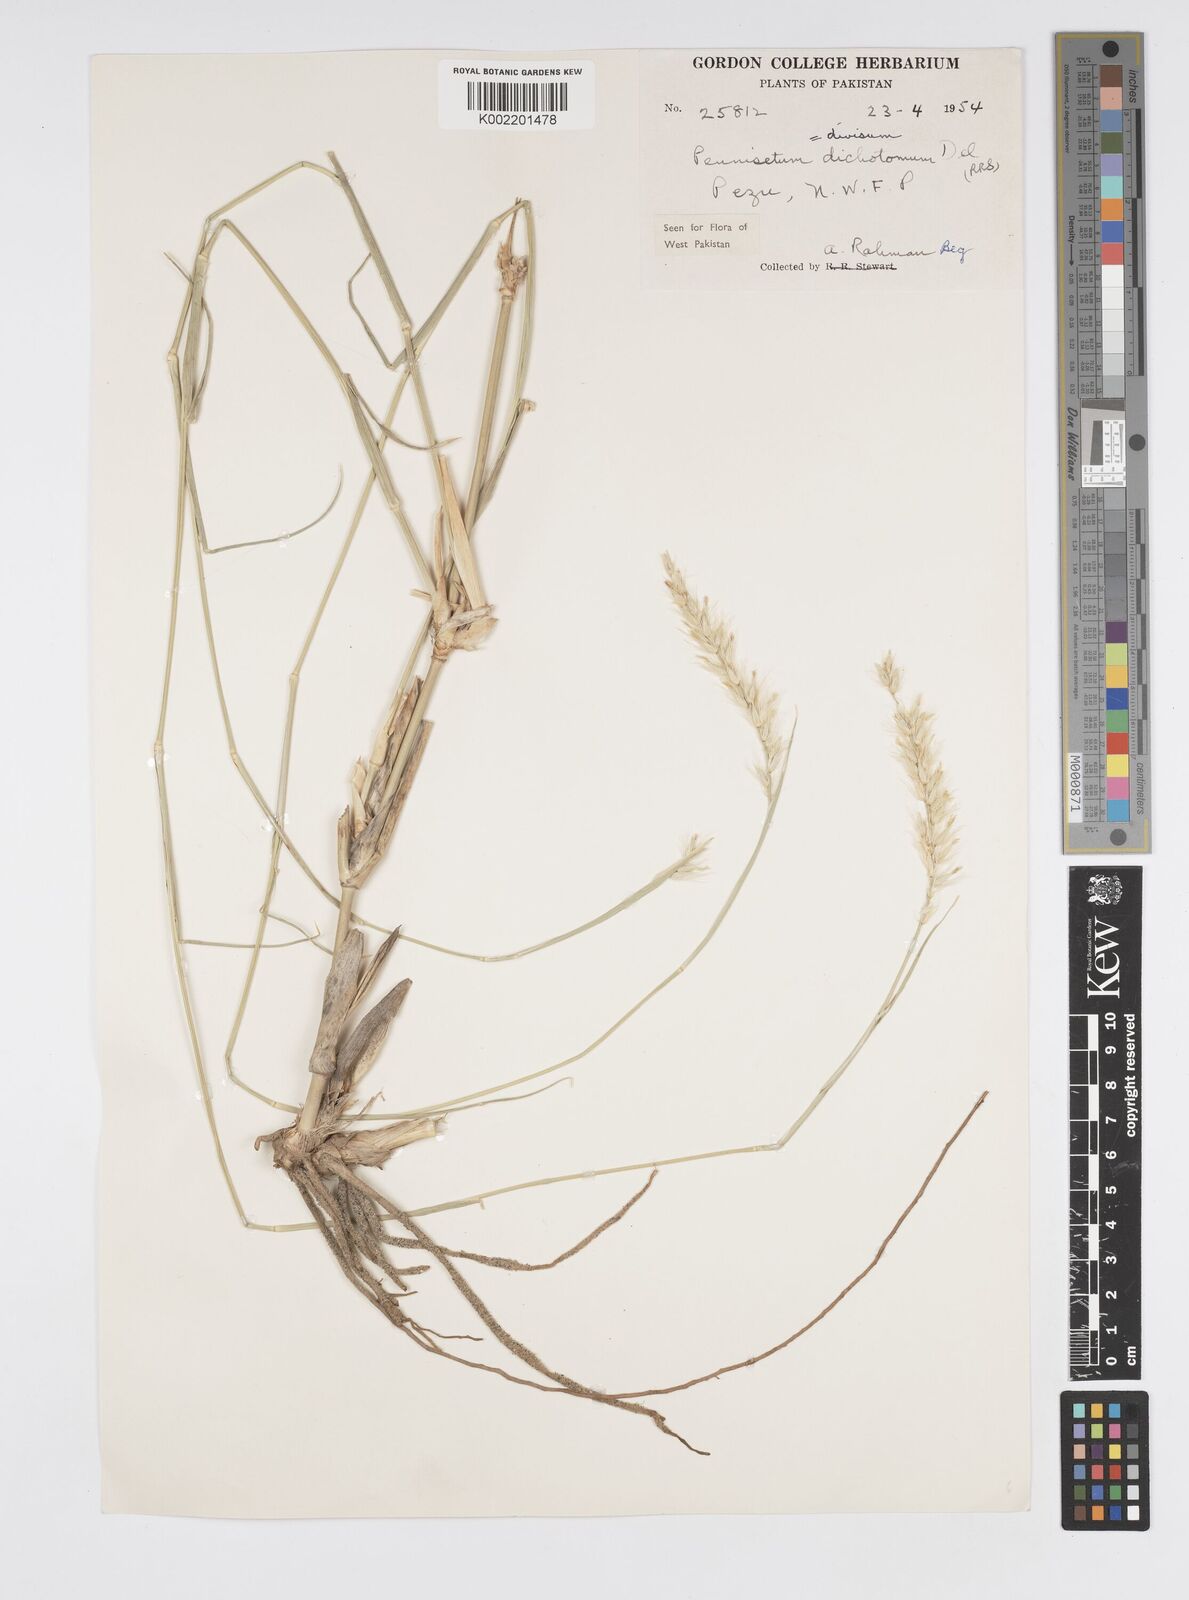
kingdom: Plantae
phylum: Tracheophyta
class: Liliopsida
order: Poales
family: Poaceae
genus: Cenchrus
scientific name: Cenchrus divisus
